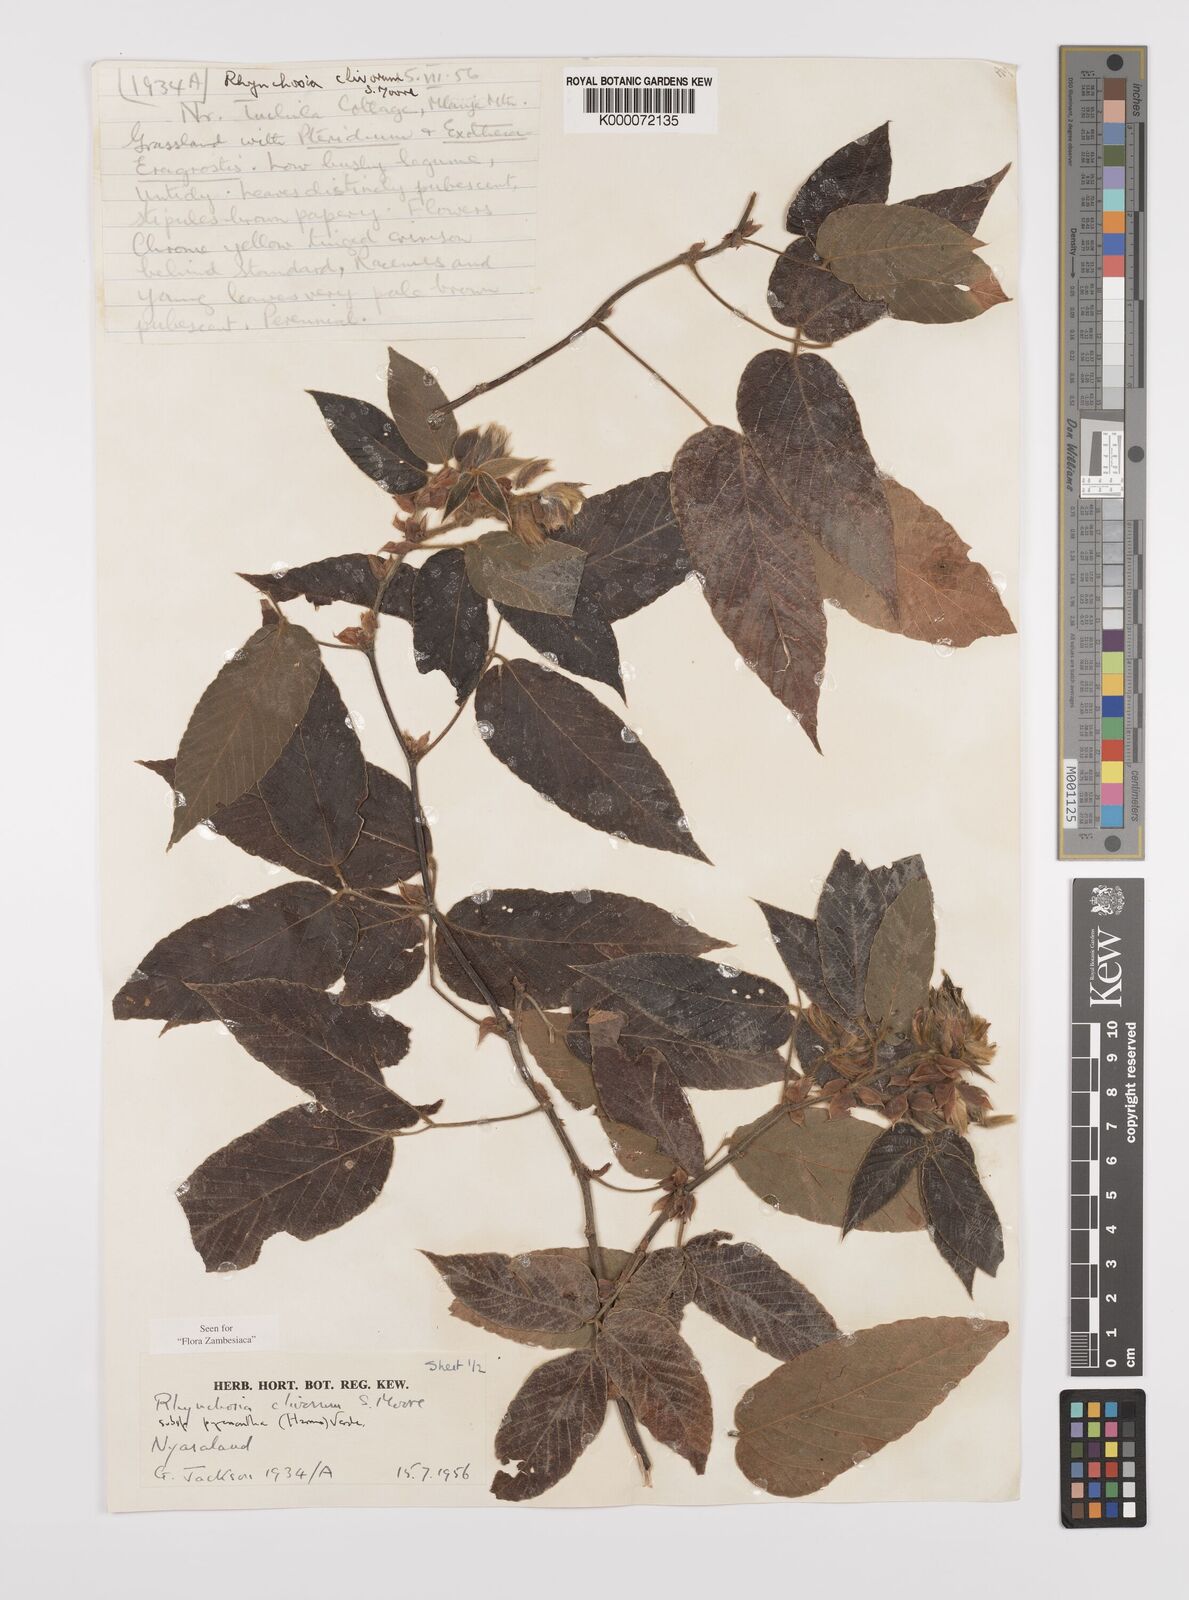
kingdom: Plantae
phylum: Tracheophyta
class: Magnoliopsida
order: Fabales
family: Fabaceae
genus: Rhynchosia
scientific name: Rhynchosia clivorum
